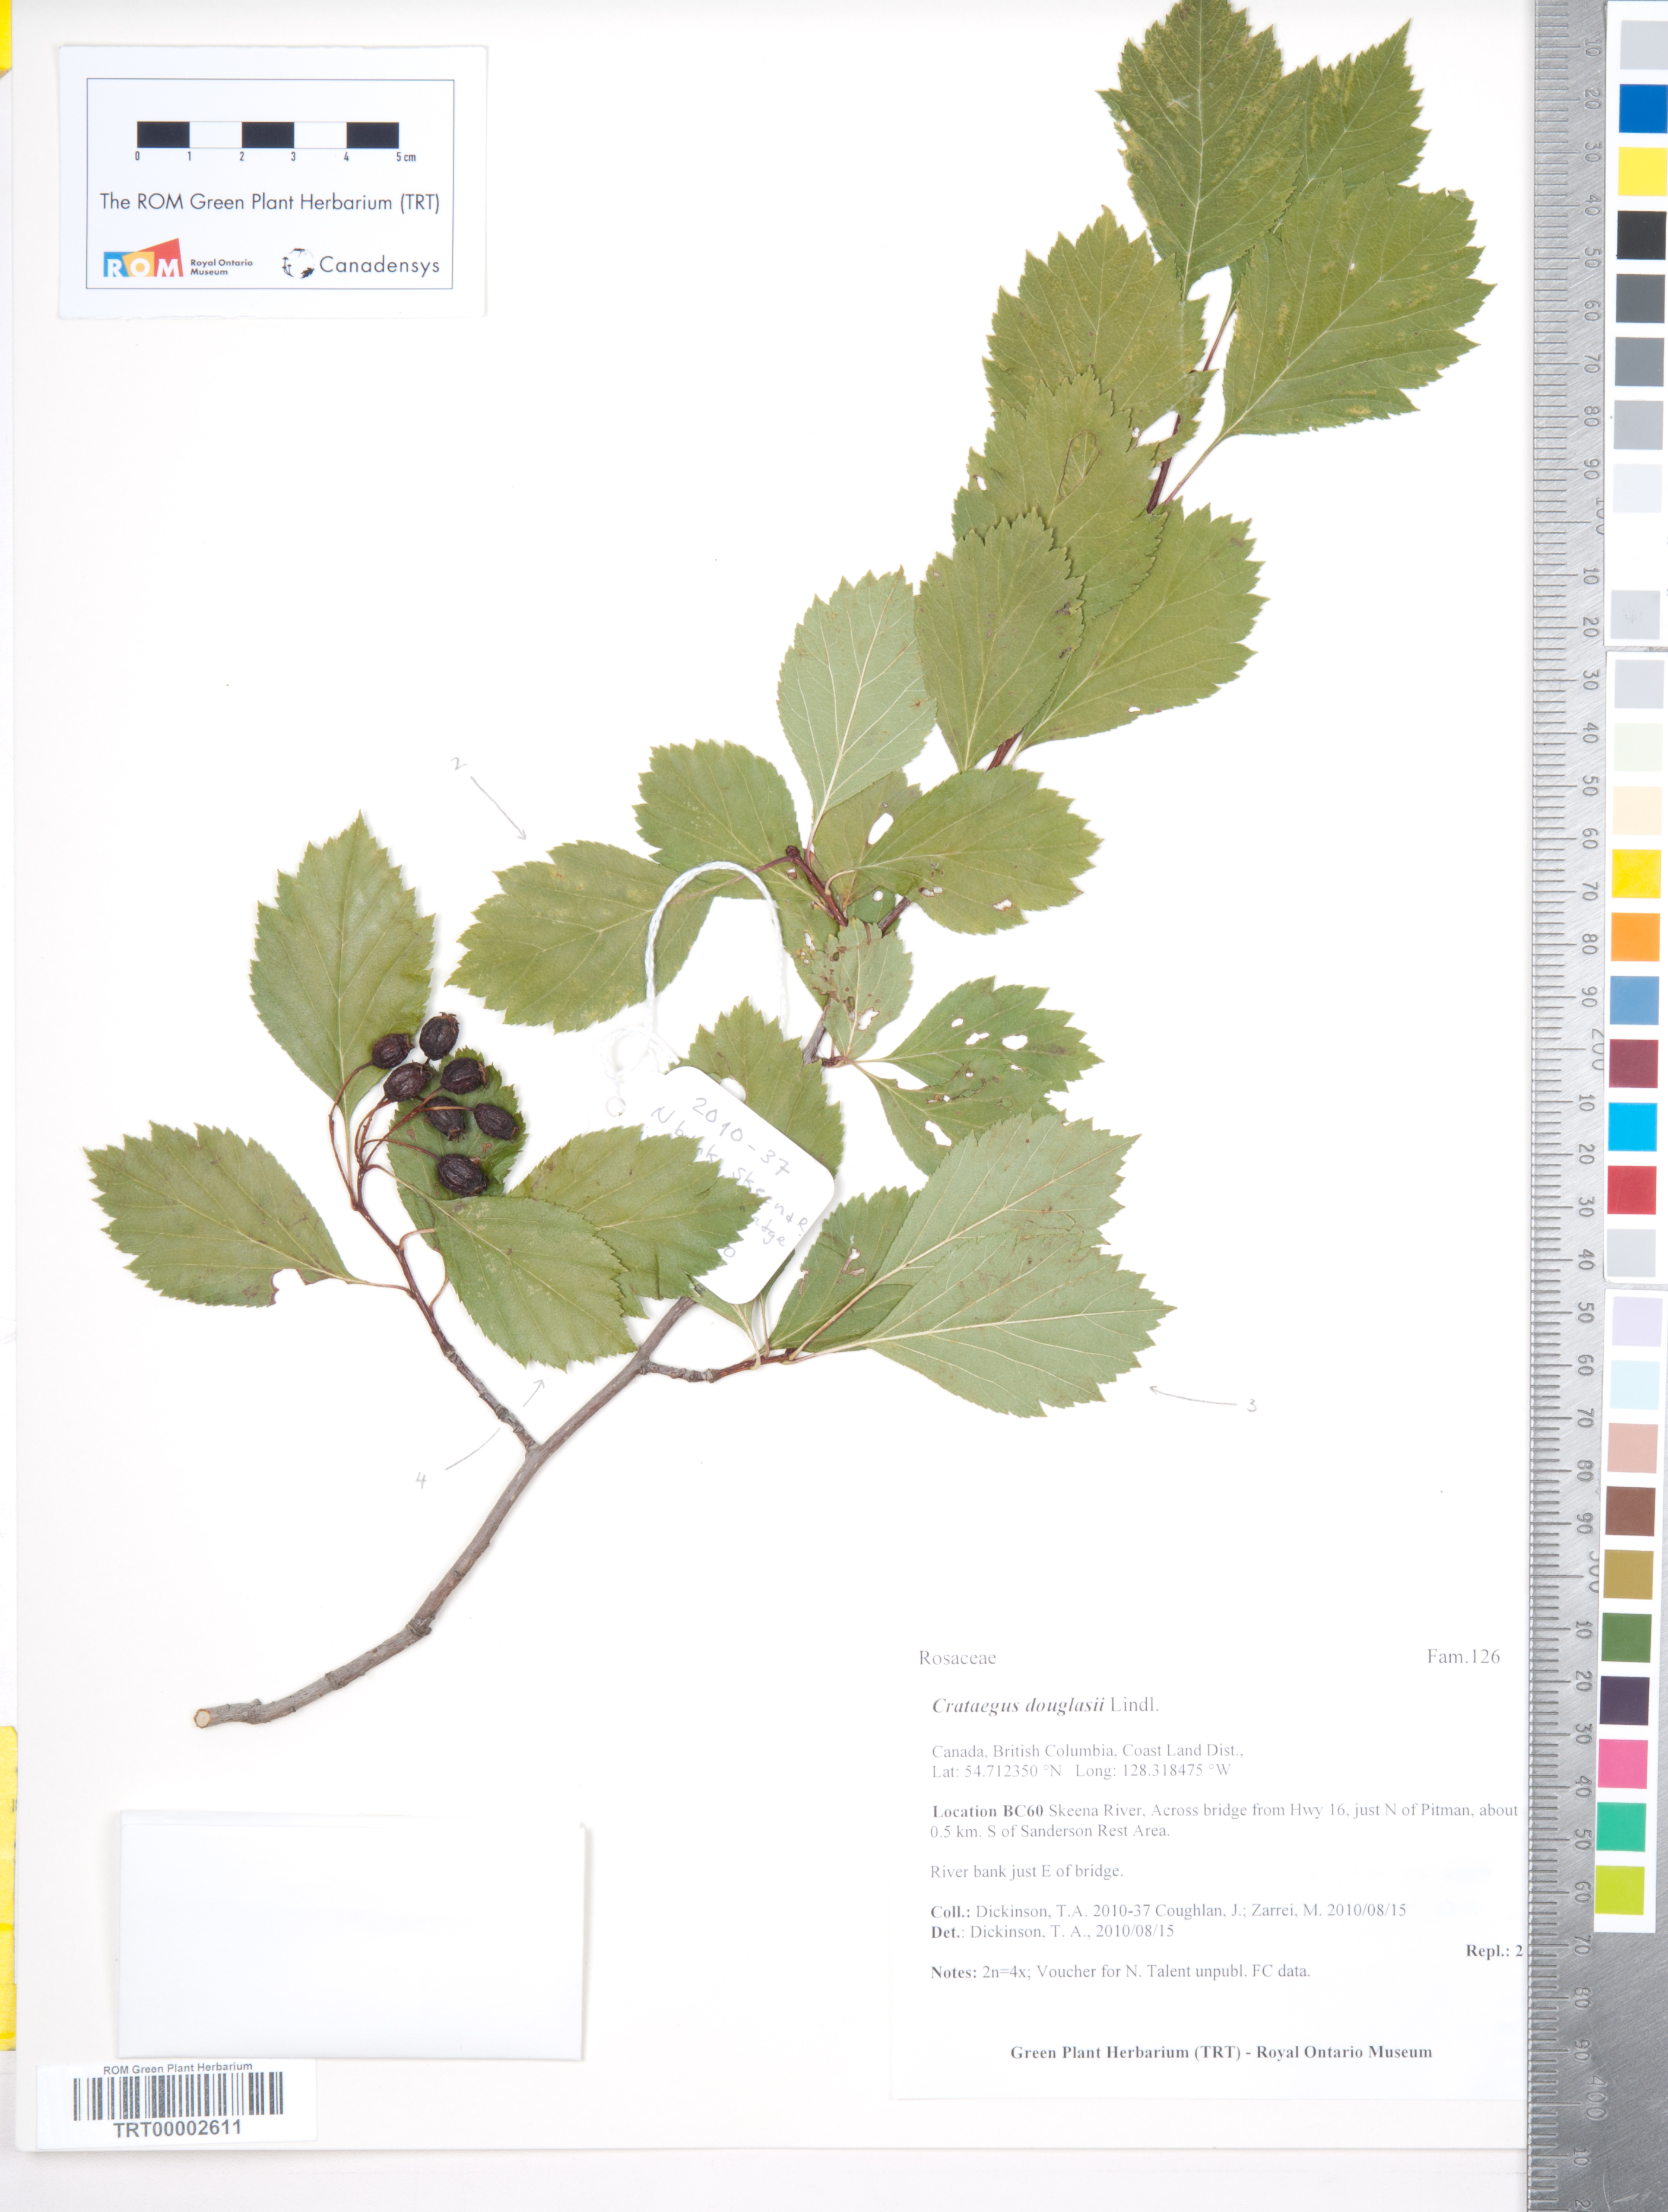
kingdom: Plantae
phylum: Tracheophyta
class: Magnoliopsida
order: Rosales
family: Rosaceae
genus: Crataegus
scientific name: Crataegus douglasii
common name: Black hawthorn
